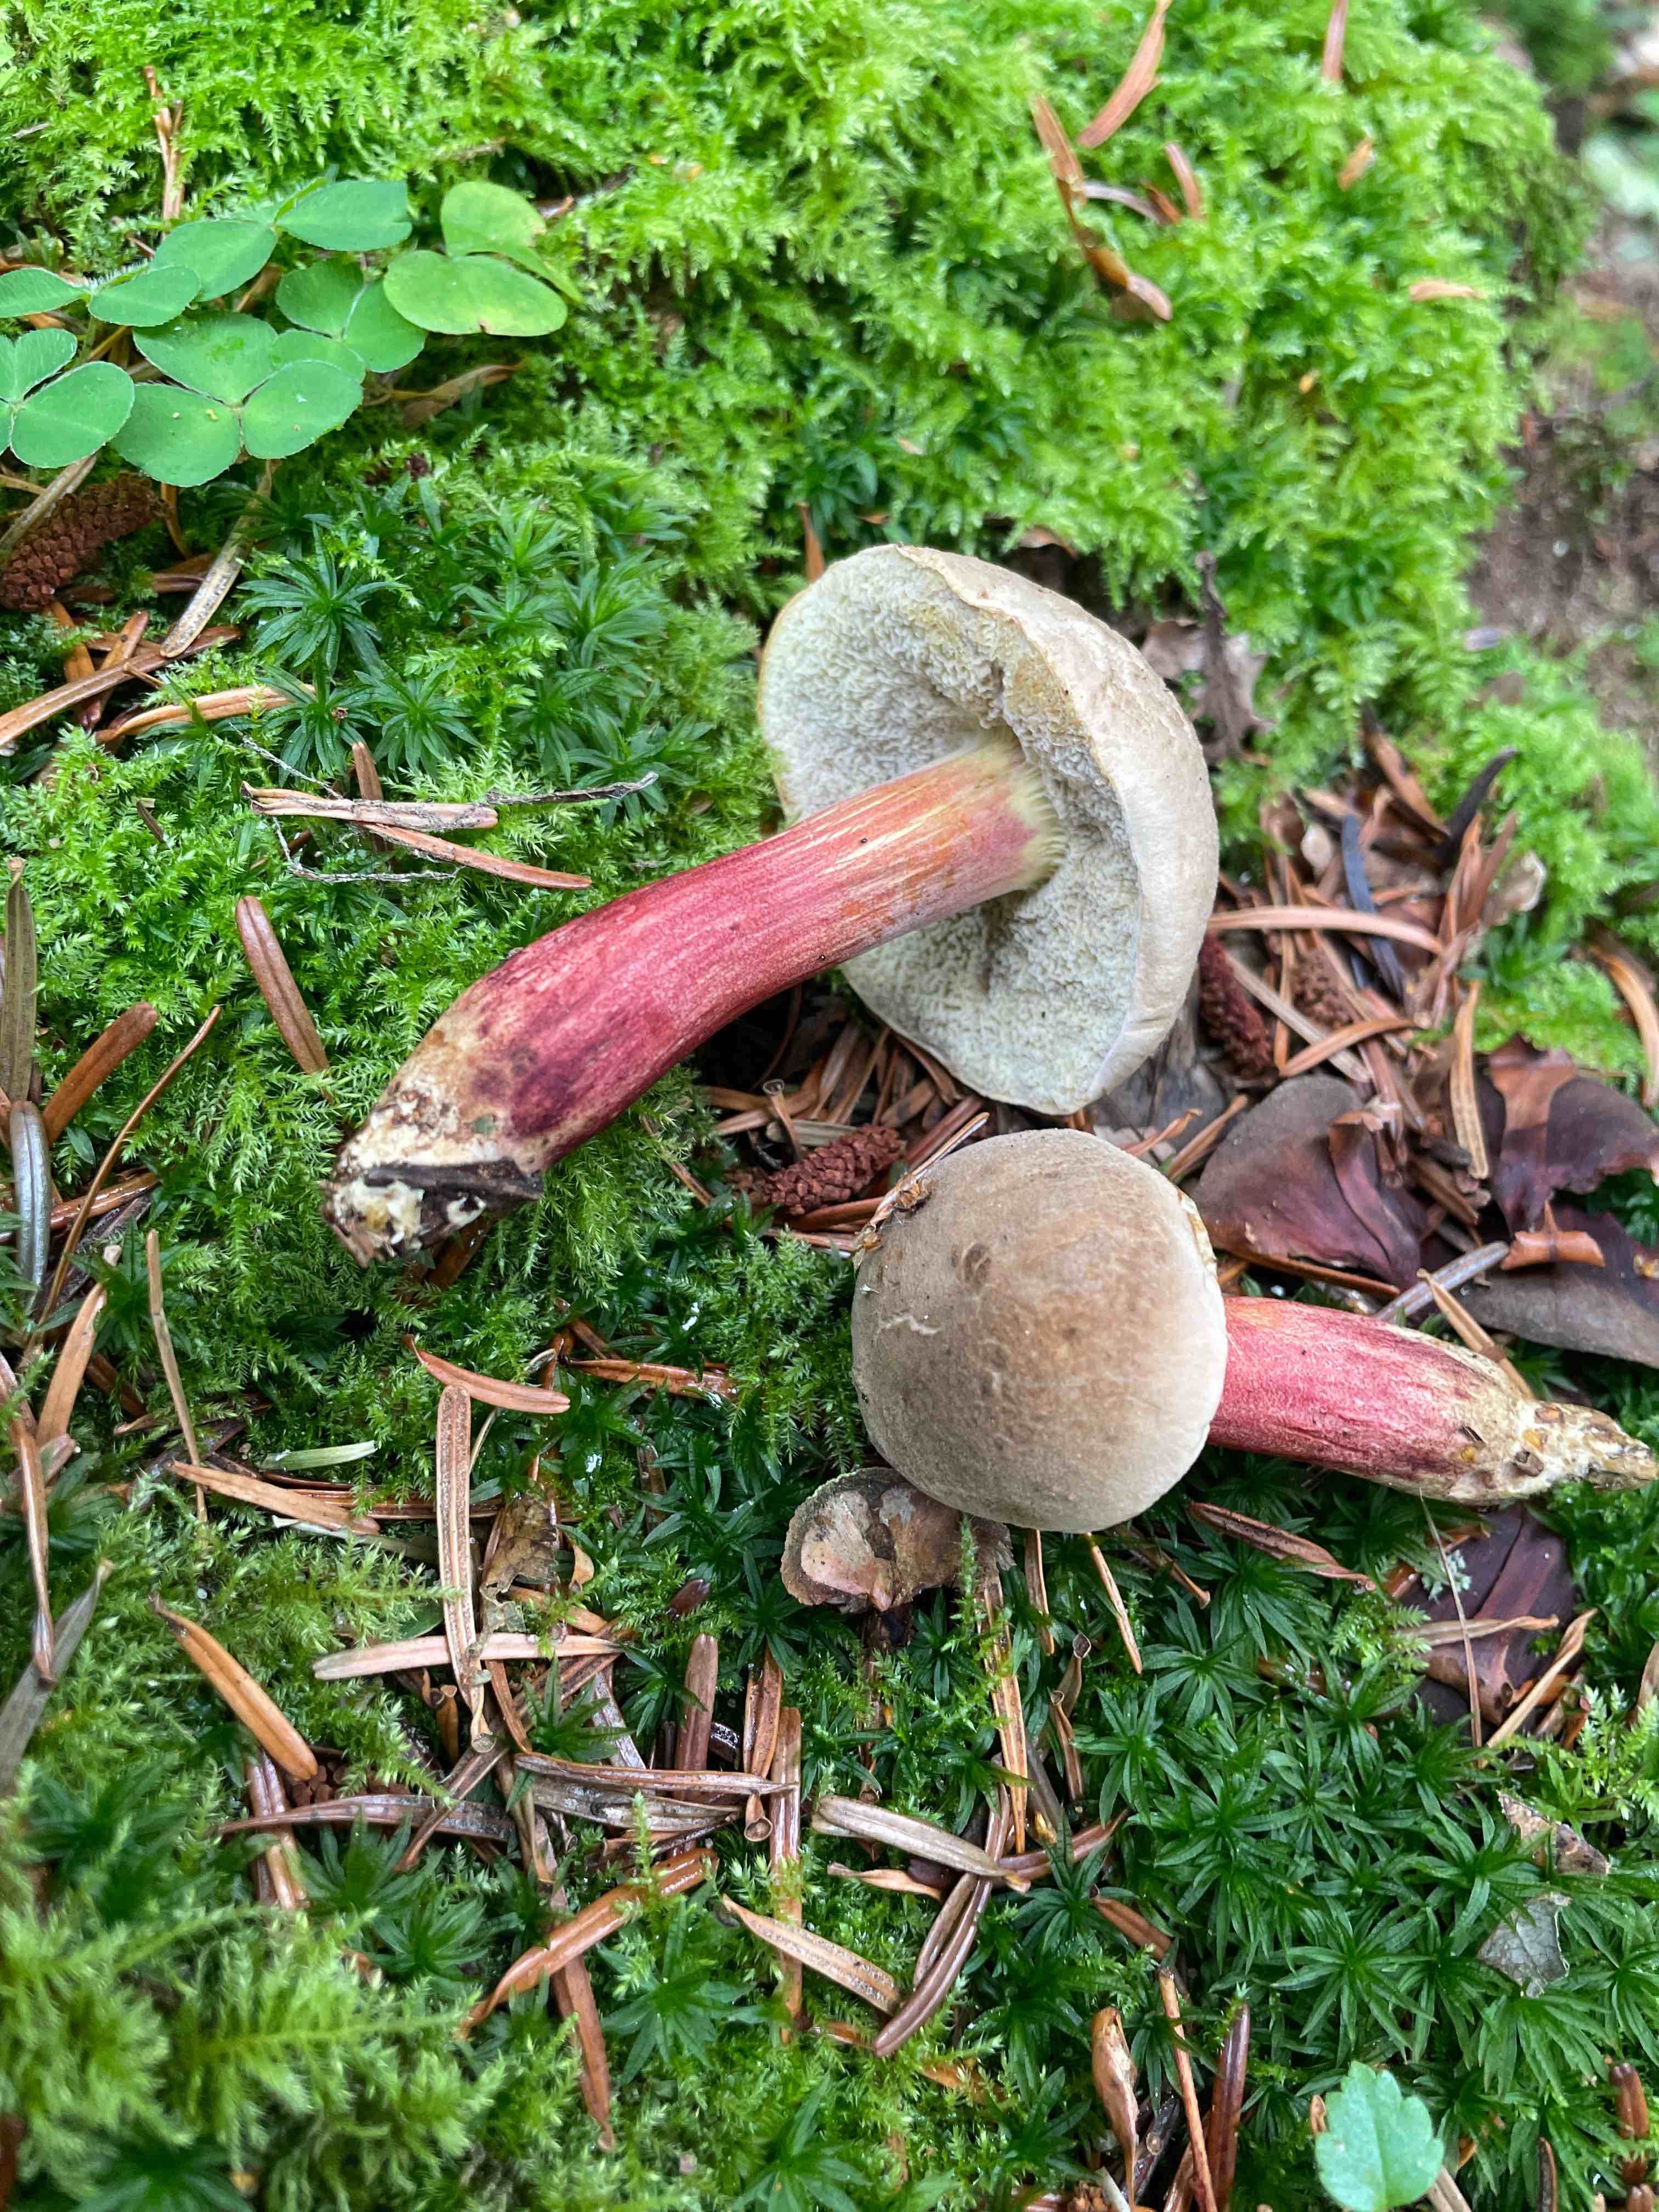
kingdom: Fungi
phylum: Basidiomycota
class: Agaricomycetes
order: Boletales
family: Boletaceae
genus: Xerocomellus
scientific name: Xerocomellus
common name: dværgrørhat
